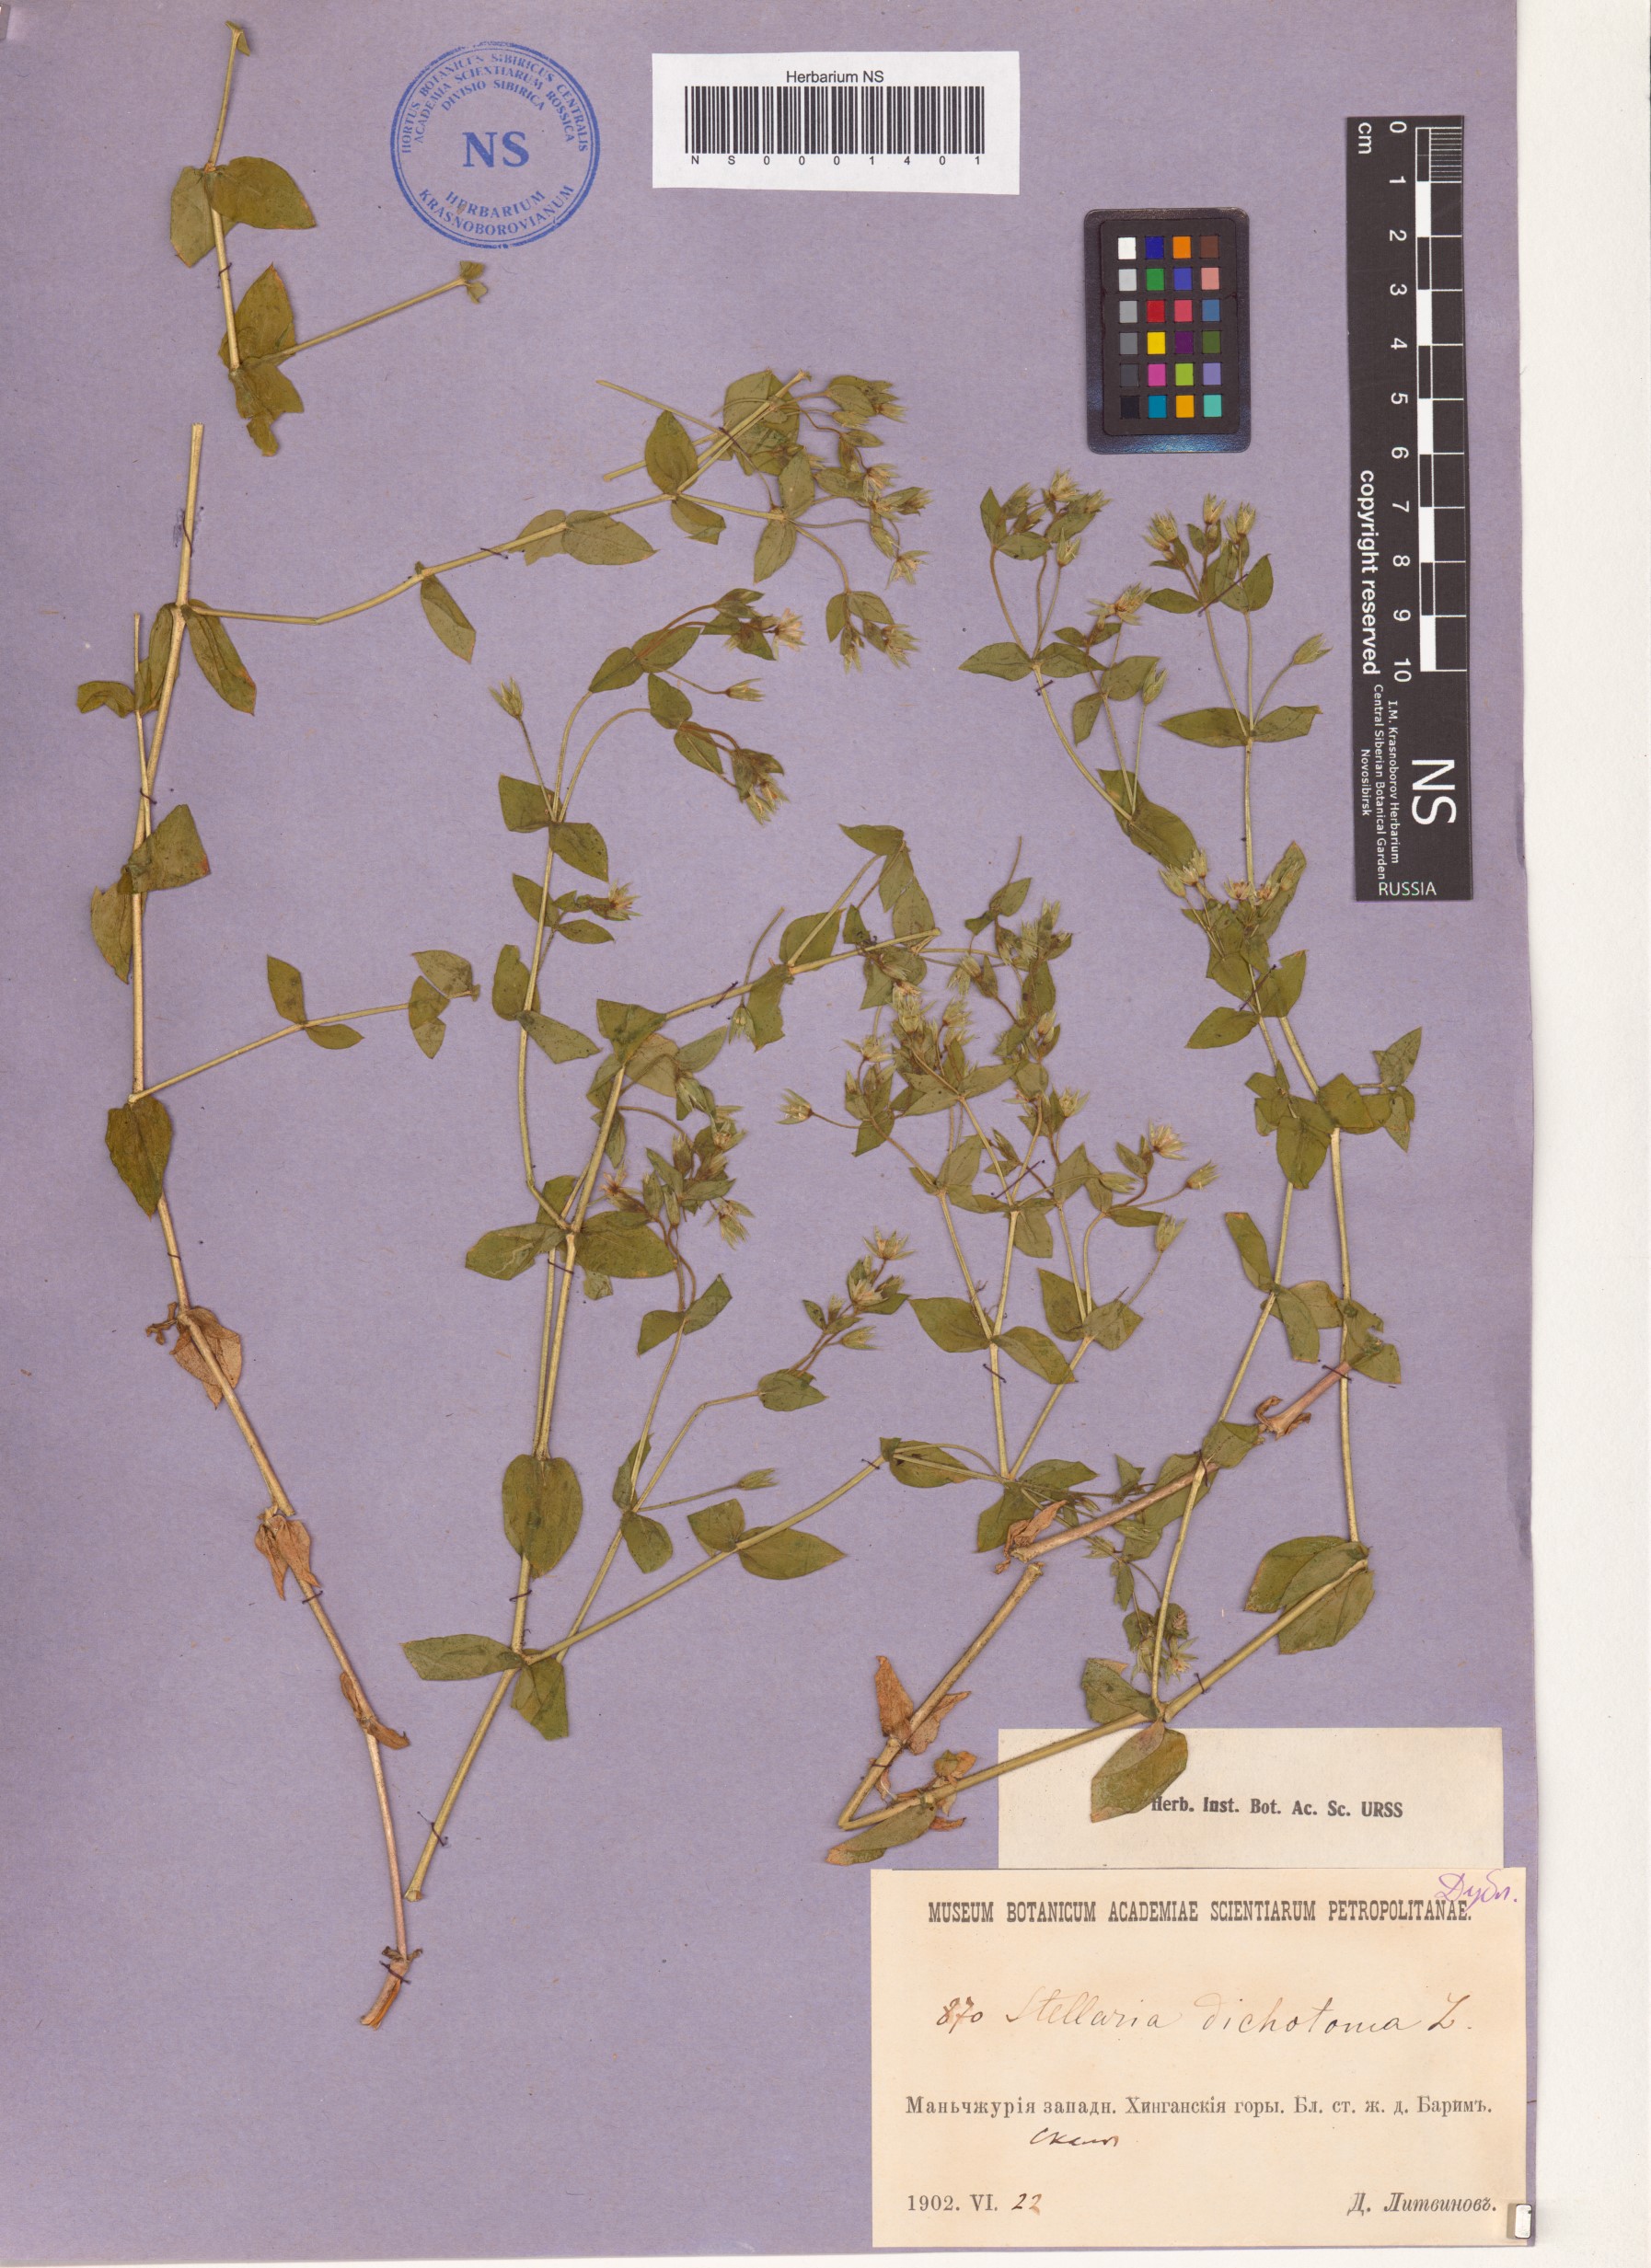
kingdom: Plantae
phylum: Tracheophyta
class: Magnoliopsida
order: Caryophyllales
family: Caryophyllaceae
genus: Mesostemma
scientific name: Mesostemma dichotomum
